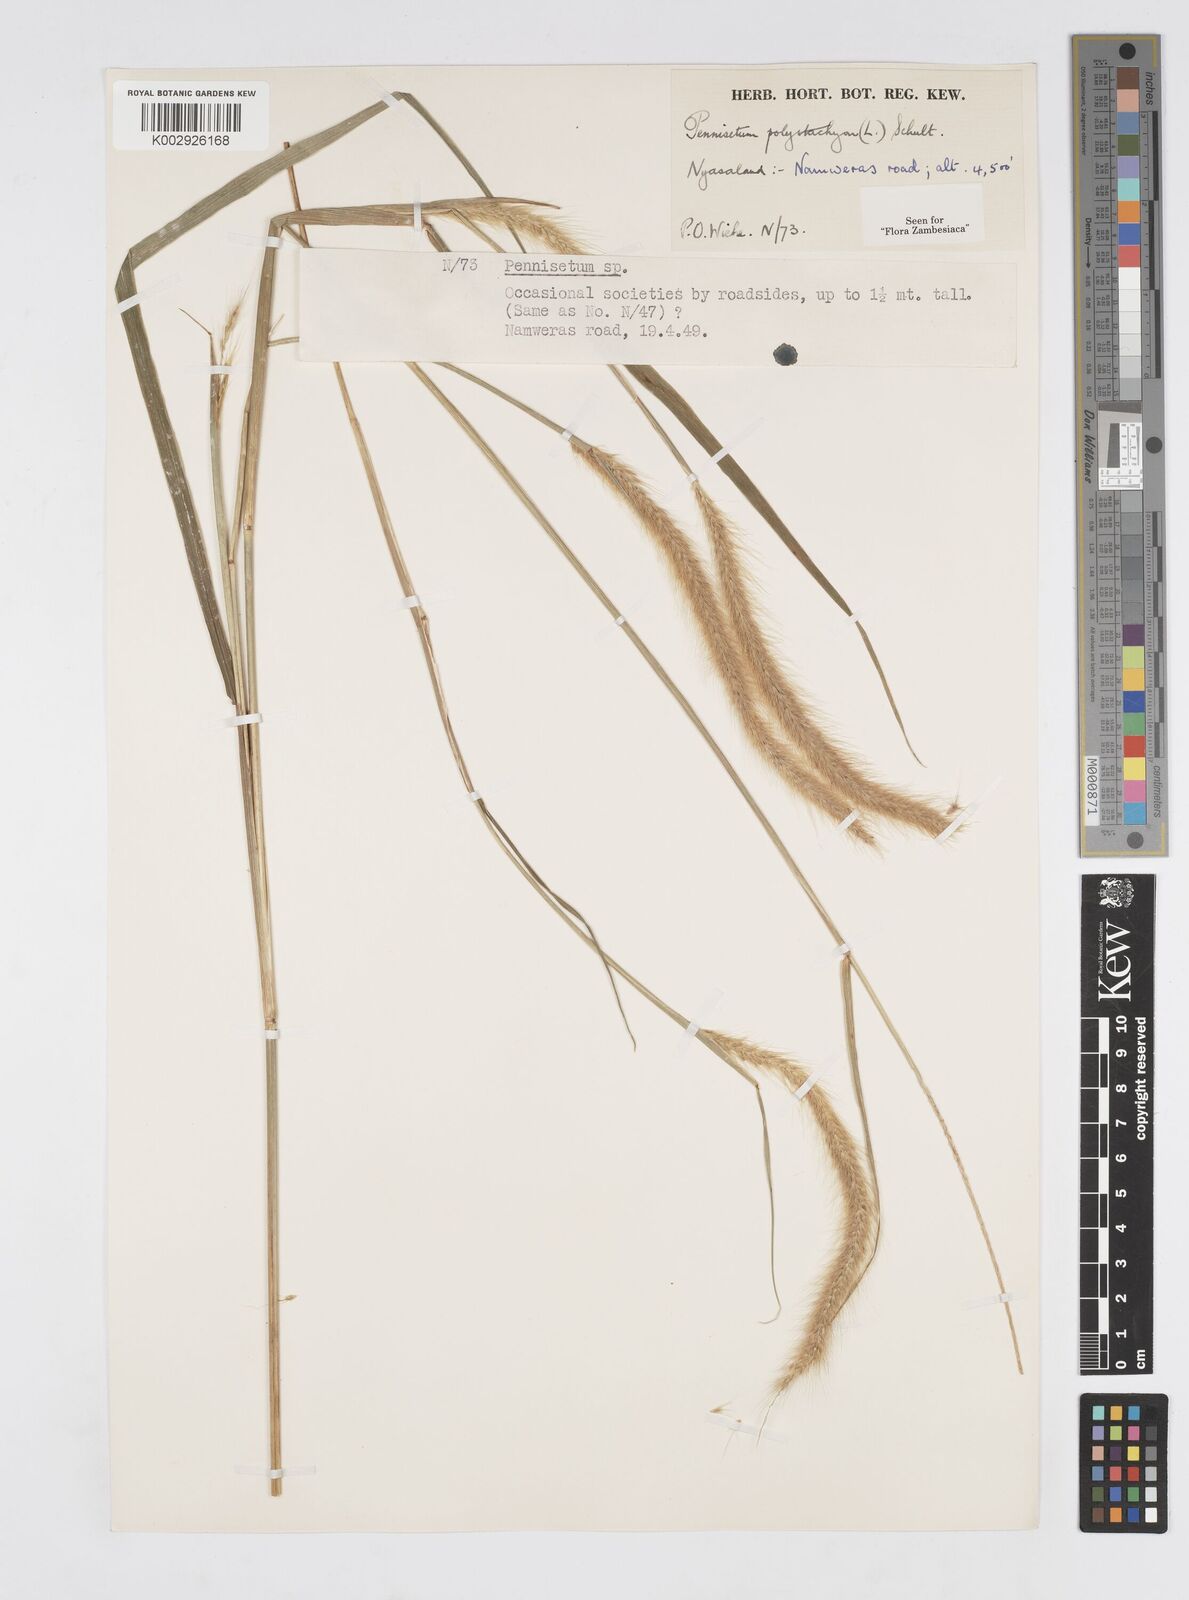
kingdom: Plantae
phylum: Tracheophyta
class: Liliopsida
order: Poales
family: Poaceae
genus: Setaria
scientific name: Setaria parviflora
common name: Knotroot bristle-grass
